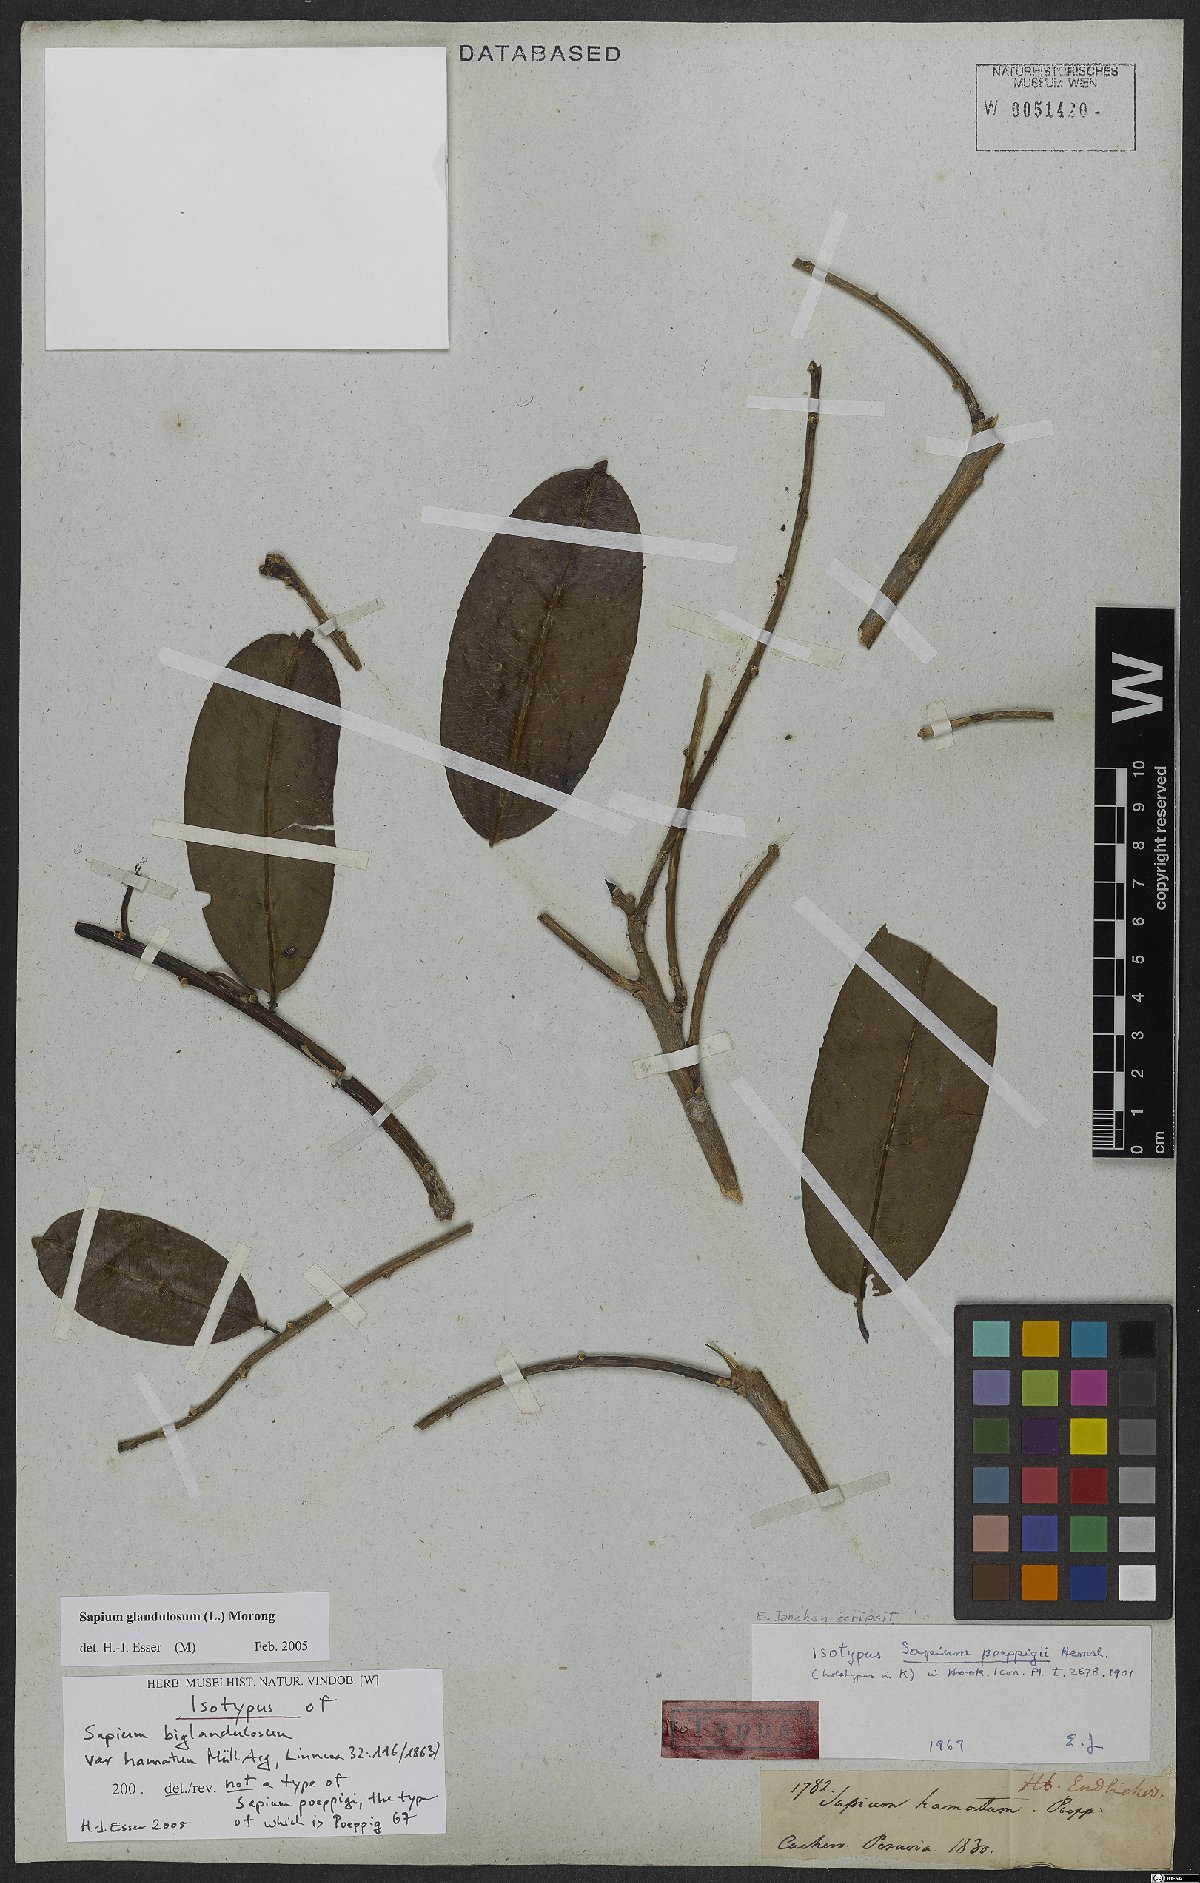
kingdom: Plantae
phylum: Tracheophyta
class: Magnoliopsida
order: Malpighiales
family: Euphorbiaceae
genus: Sapium
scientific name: Sapium glandulosum
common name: Milktree
